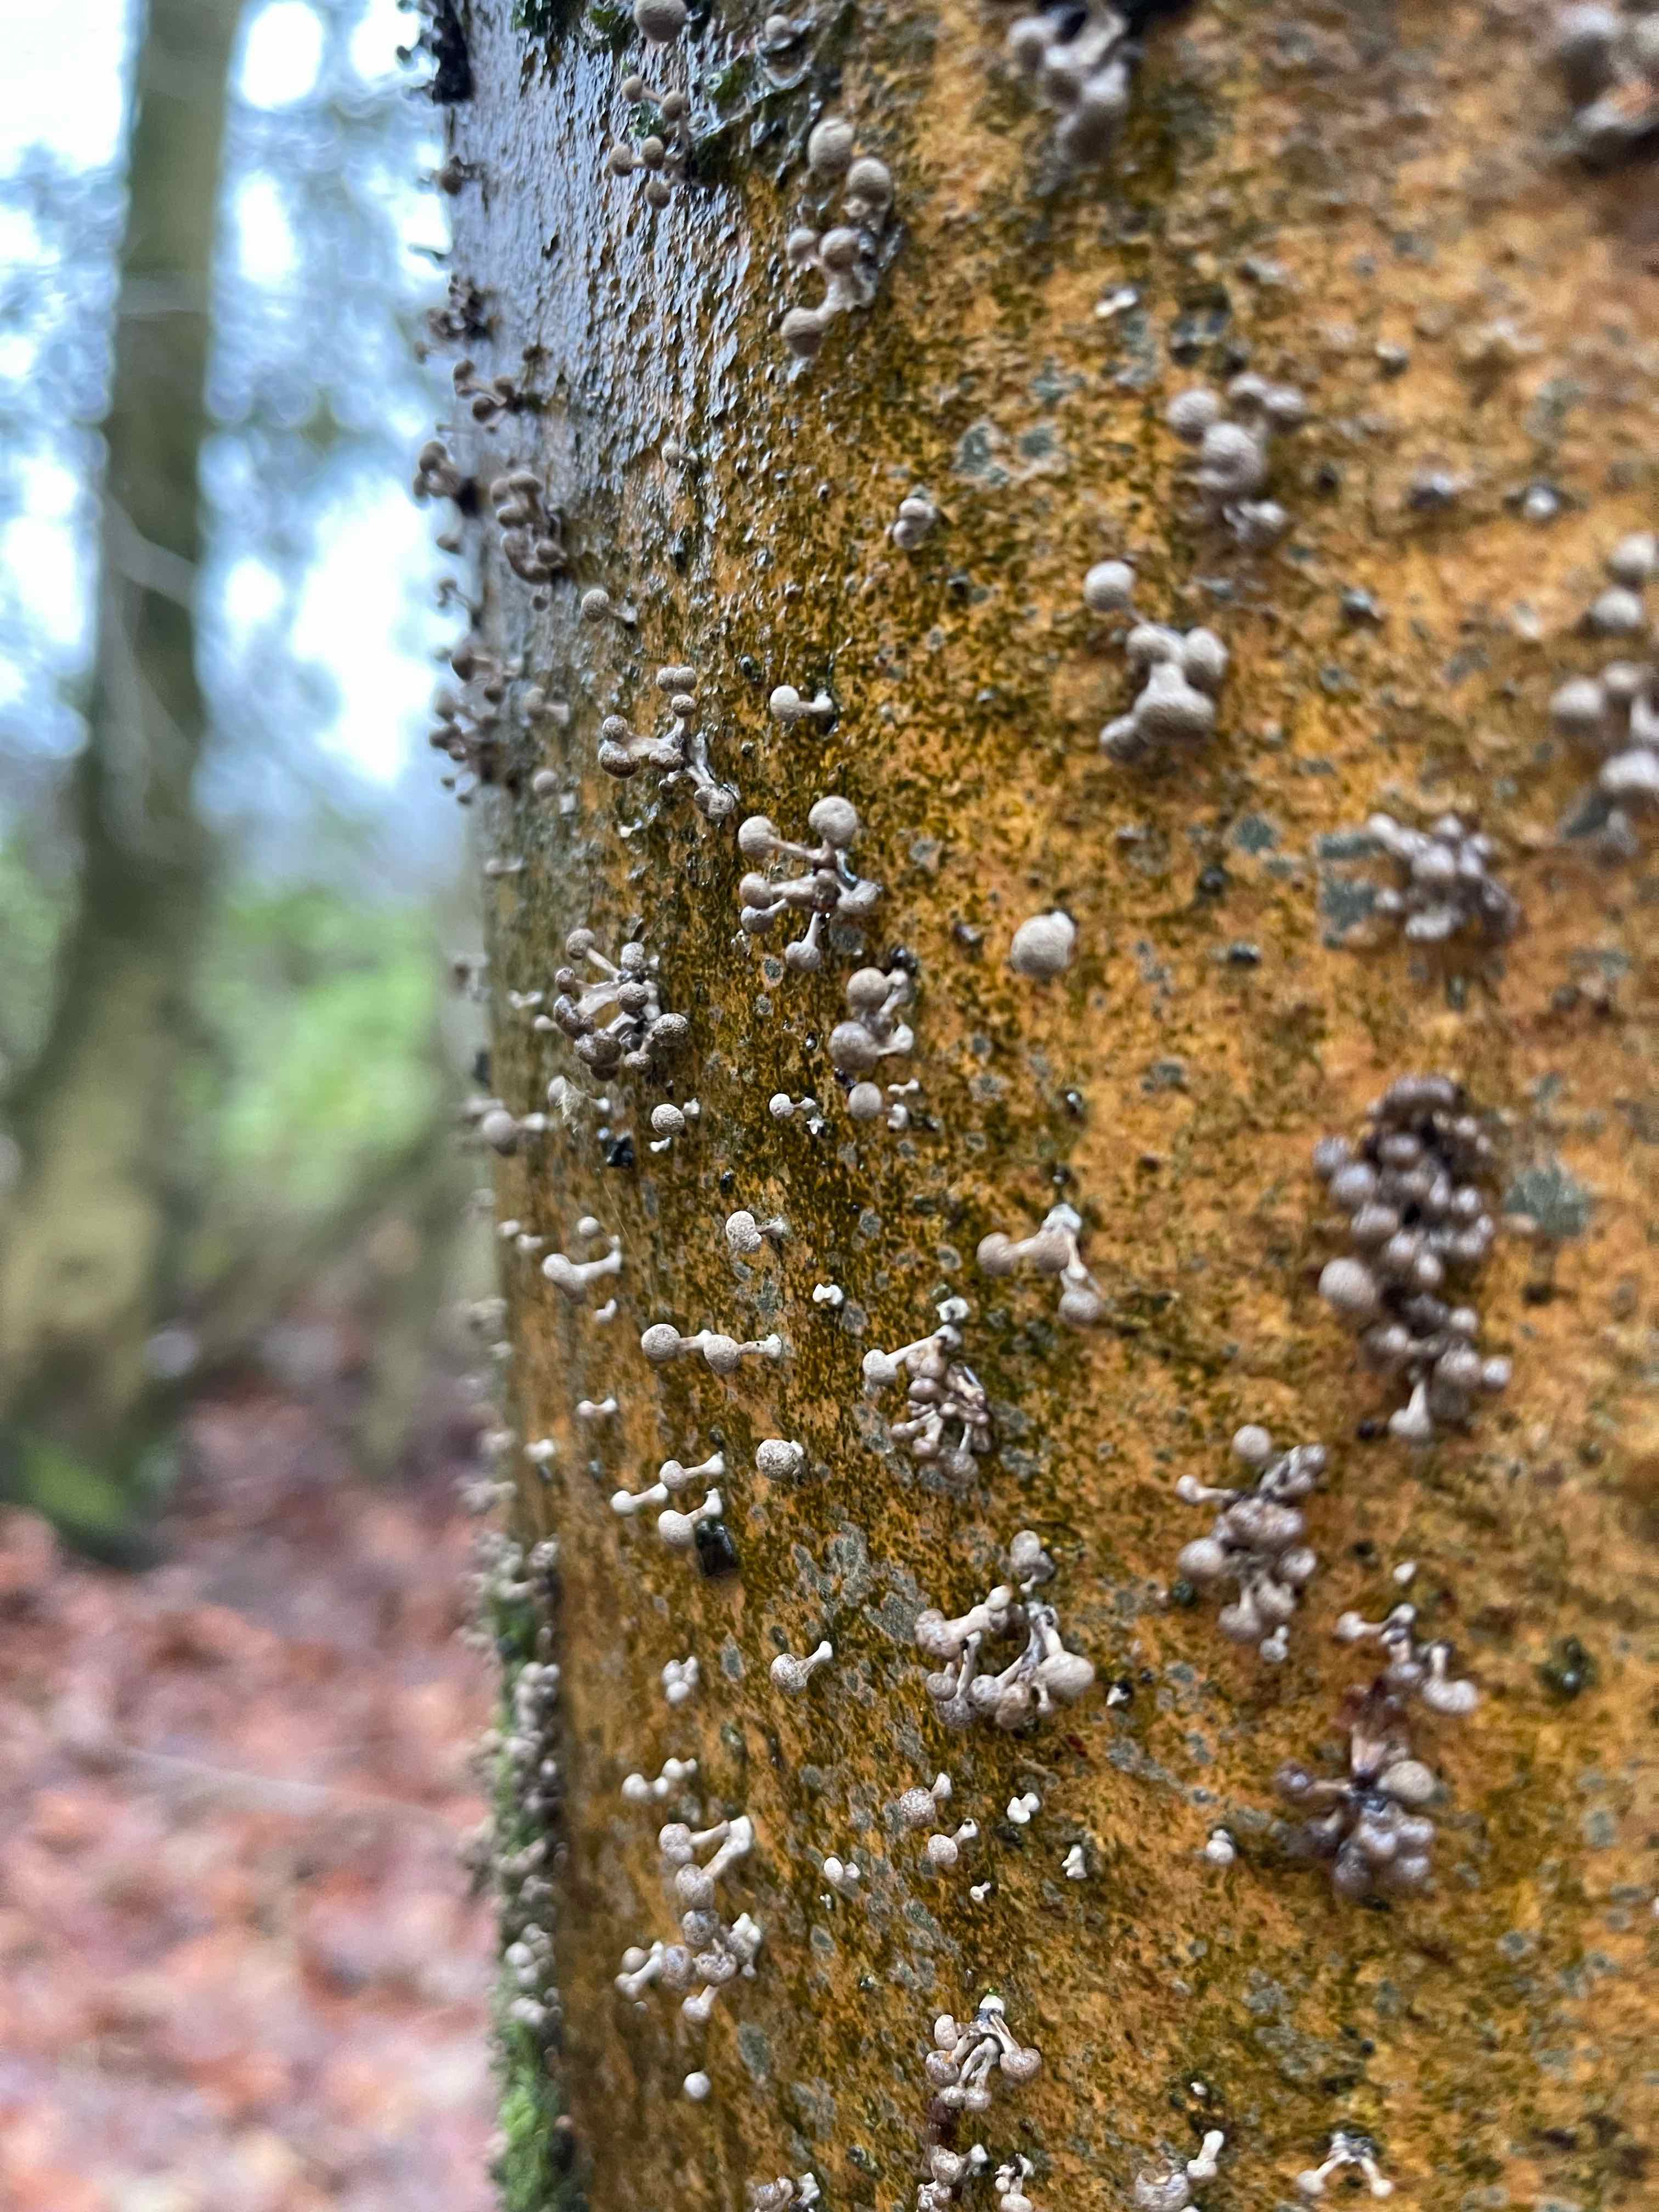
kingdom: Fungi
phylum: Basidiomycota
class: Atractiellomycetes
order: Atractiellales
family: Phleogenaceae
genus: Phleogena
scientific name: Phleogena faginea
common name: pudderkølle
